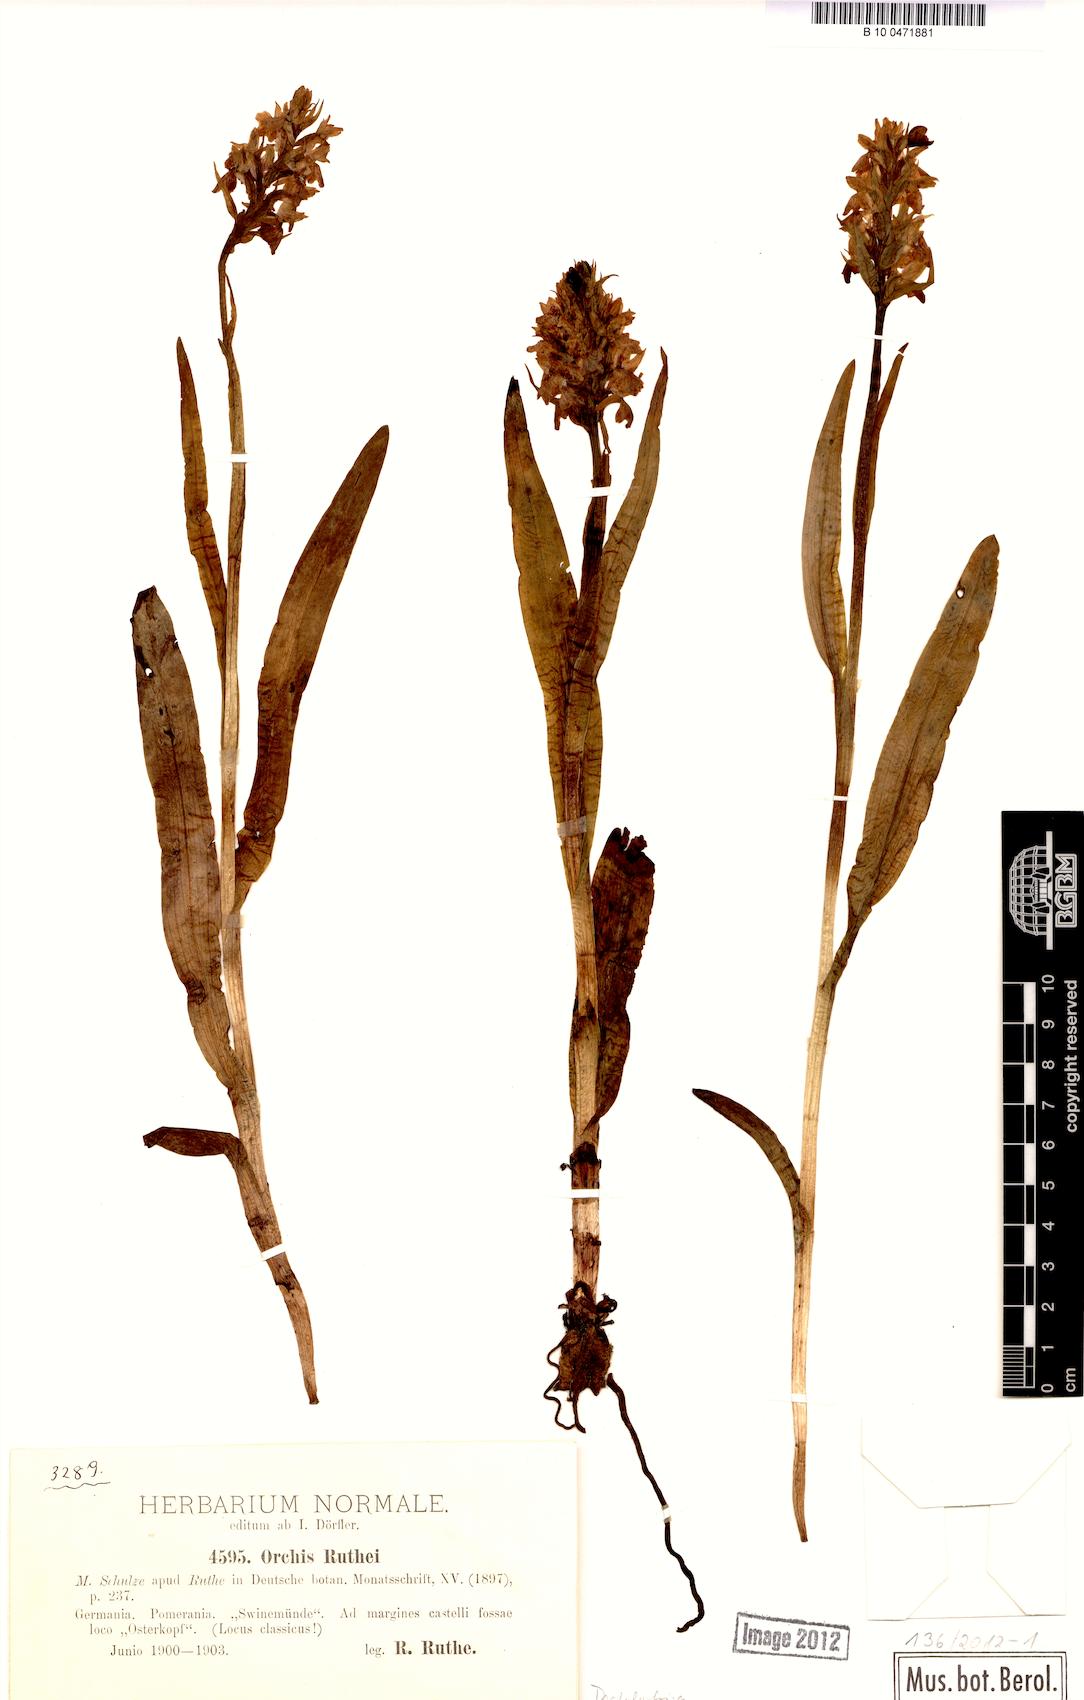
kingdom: Plantae
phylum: Tracheophyta
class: Liliopsida
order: Asparagales
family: Orchidaceae
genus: Dactylorhiza
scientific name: Dactylorhiza kerneriorum
